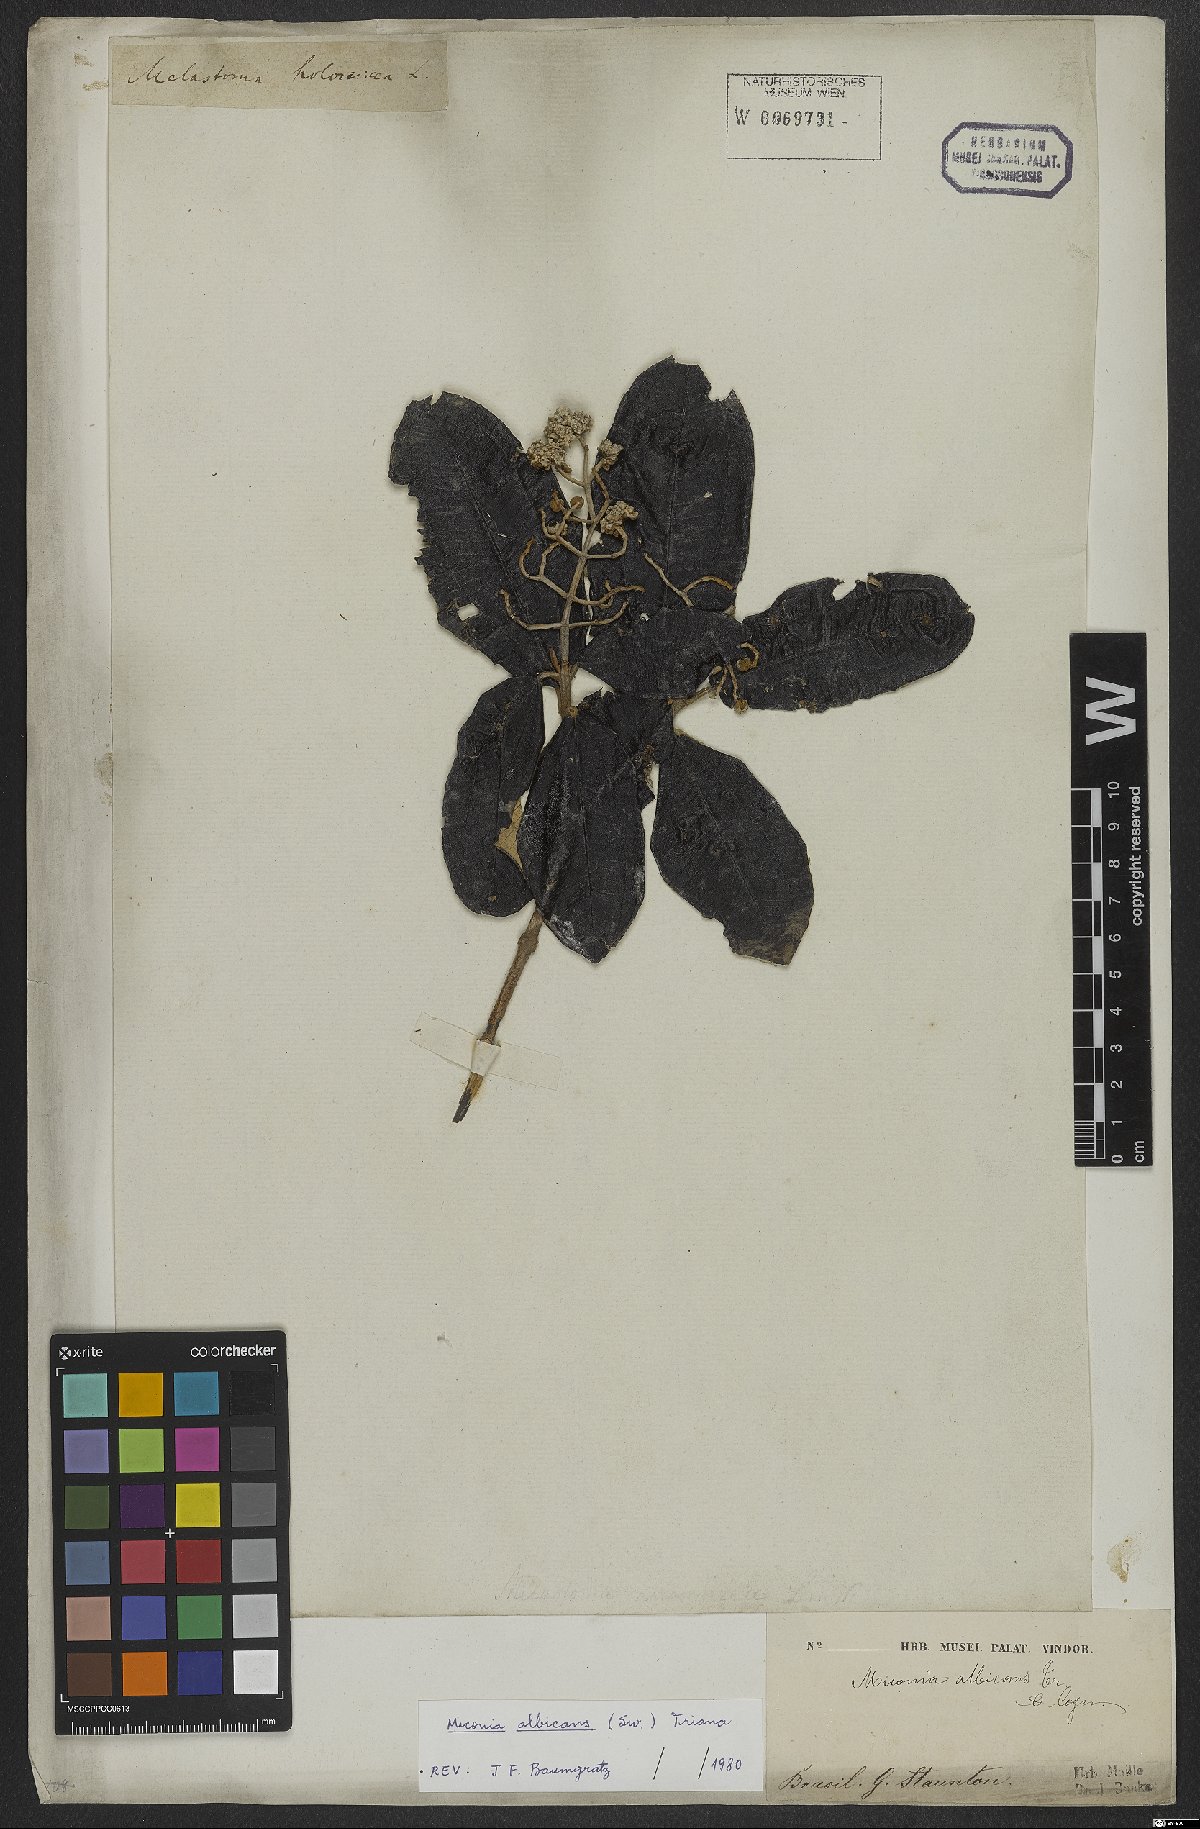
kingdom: Plantae
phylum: Tracheophyta
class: Magnoliopsida
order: Myrtales
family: Melastomataceae
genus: Miconia
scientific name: Miconia albicans
